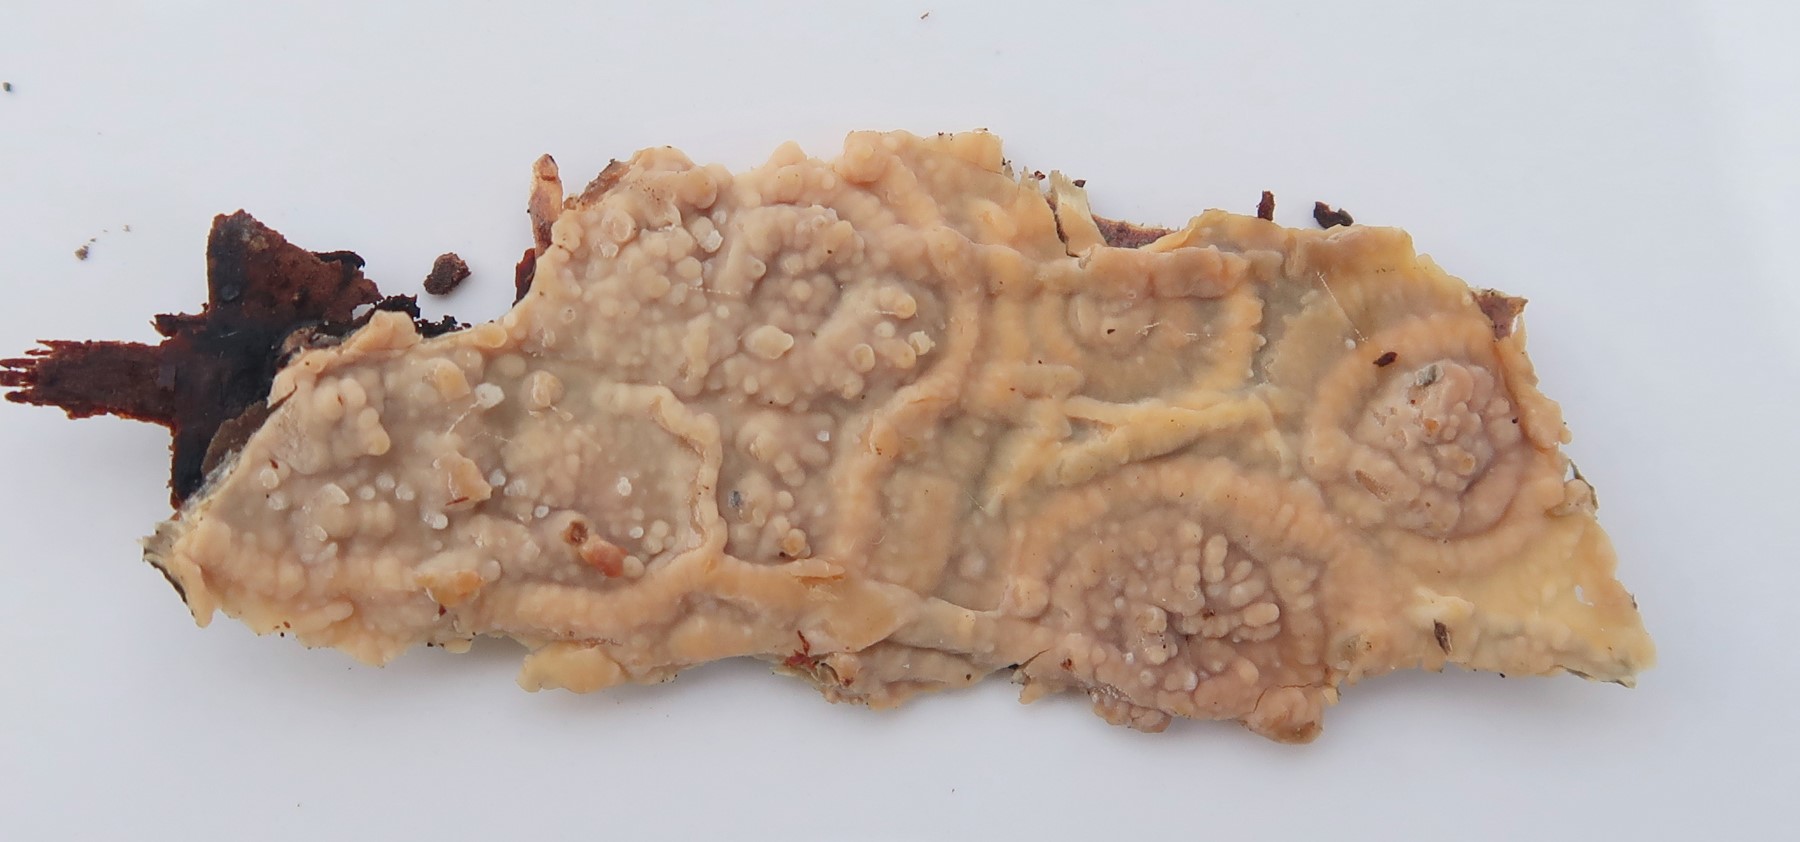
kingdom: Fungi
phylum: Basidiomycota
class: Agaricomycetes
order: Corticiales
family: Vuilleminiaceae
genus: Vuilleminia
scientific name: Vuilleminia coryli
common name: hassel-barksprænger
